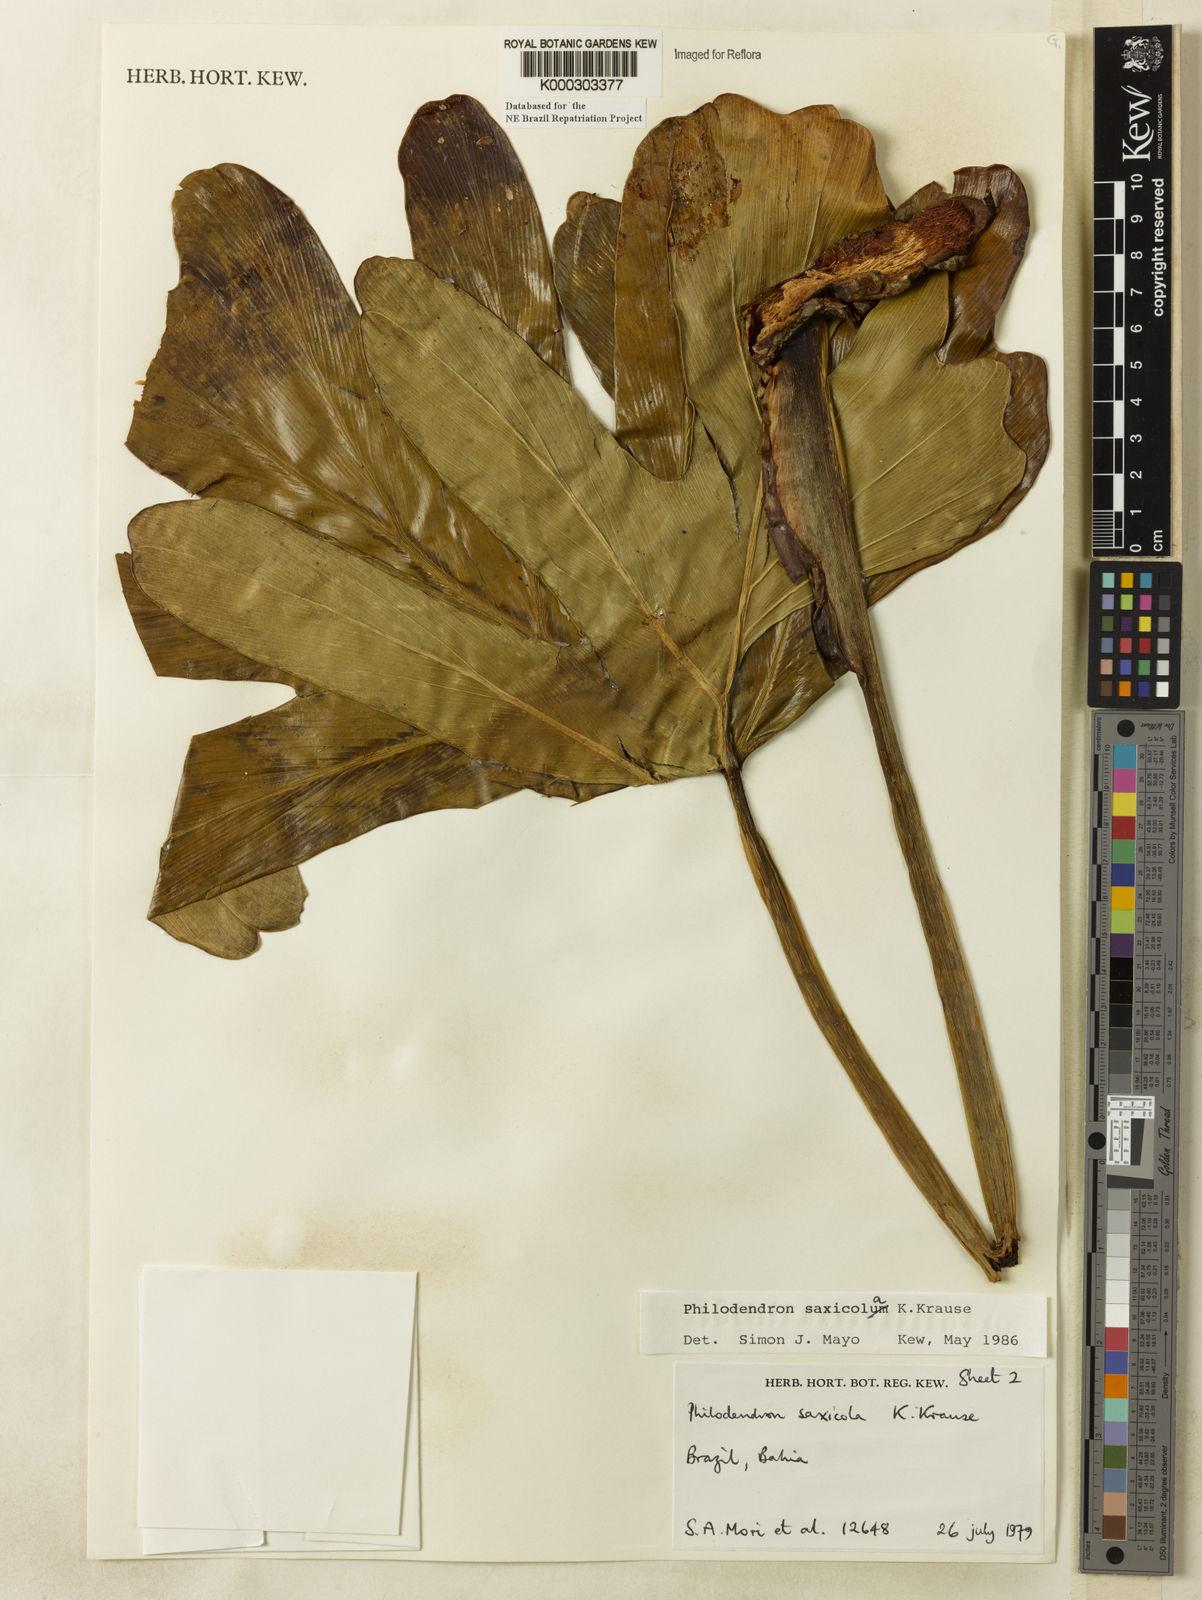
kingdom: Plantae
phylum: Tracheophyta
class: Liliopsida
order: Alismatales
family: Araceae
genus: Thaumatophyllum
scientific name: Thaumatophyllum saxicola
